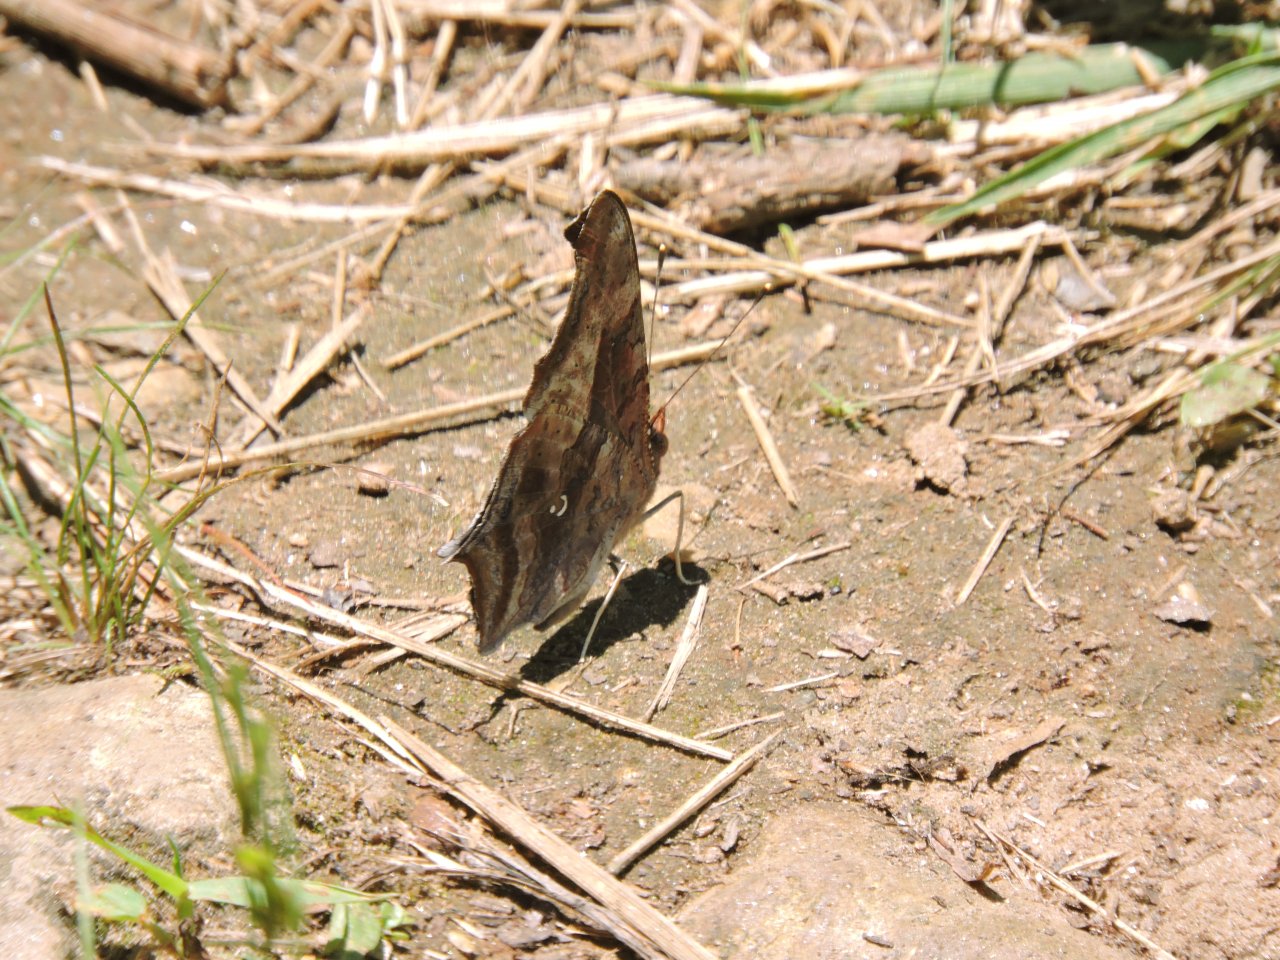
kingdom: Animalia
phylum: Arthropoda
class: Insecta
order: Lepidoptera
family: Nymphalidae
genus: Polygonia
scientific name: Polygonia interrogationis
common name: Question Mark
